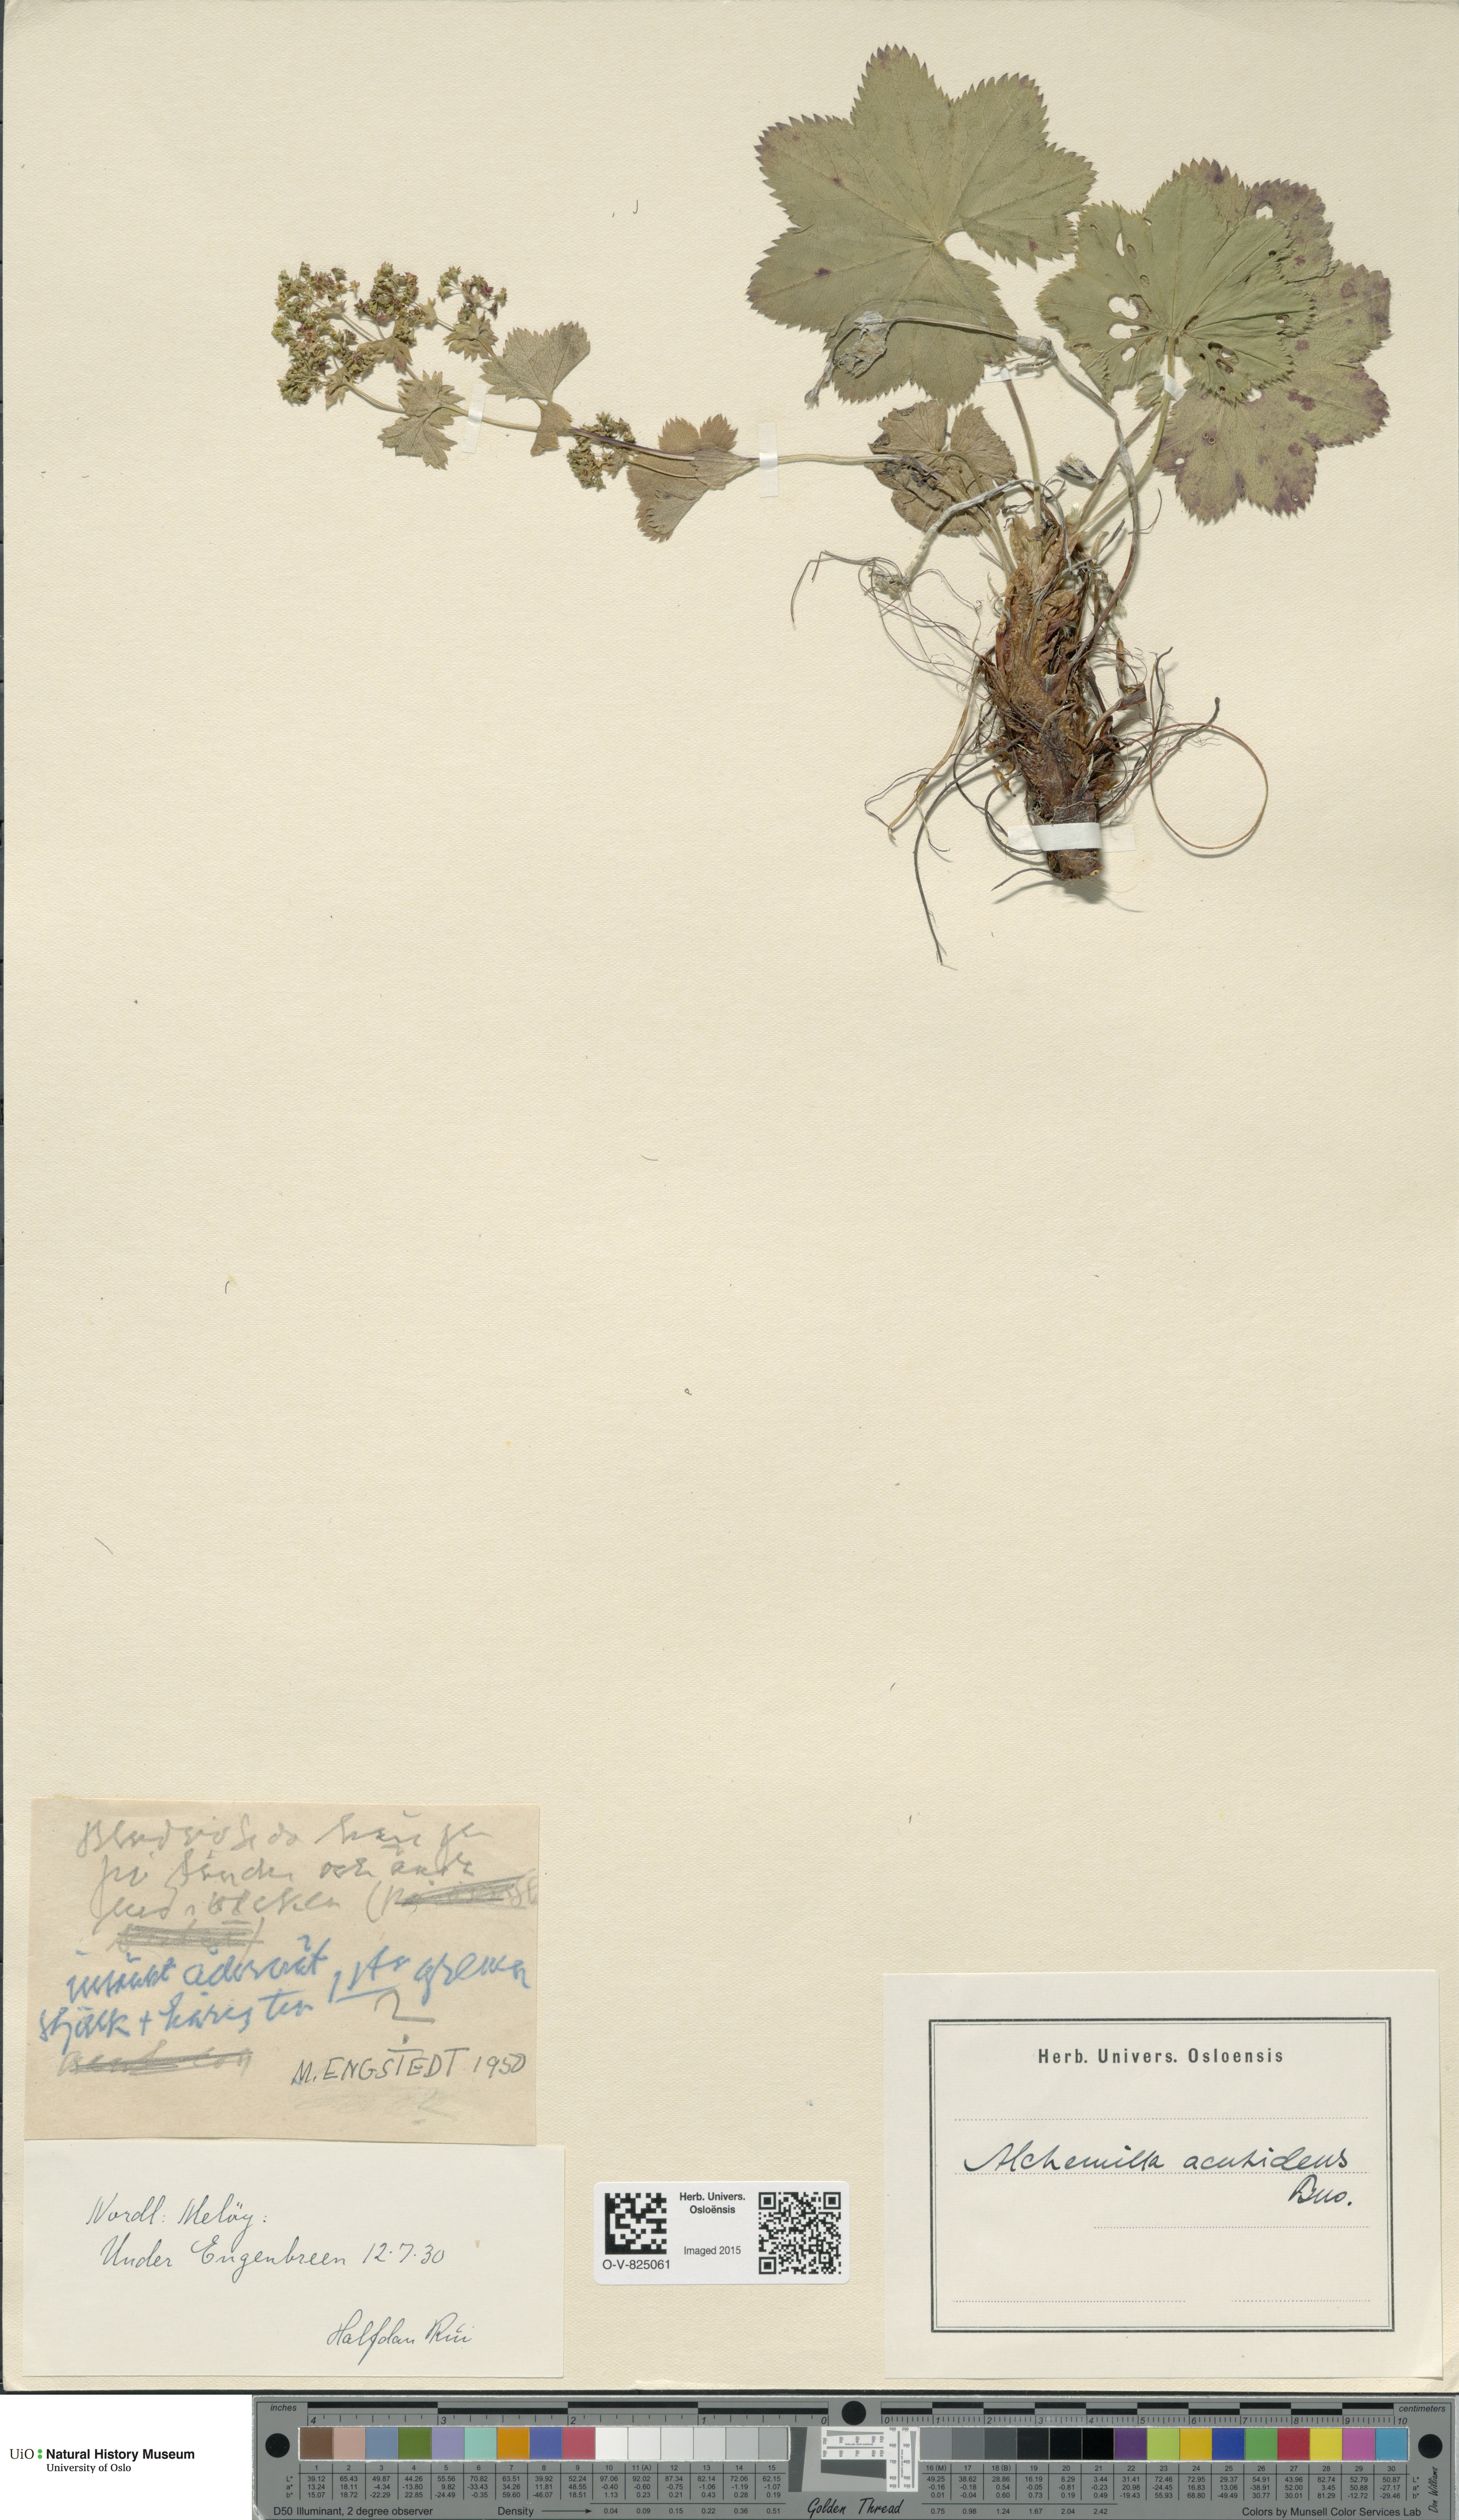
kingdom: Plantae
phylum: Tracheophyta
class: Magnoliopsida
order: Rosales
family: Rosaceae
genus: Alchemilla
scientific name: Alchemilla wichurae
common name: Rock lady's mantle
